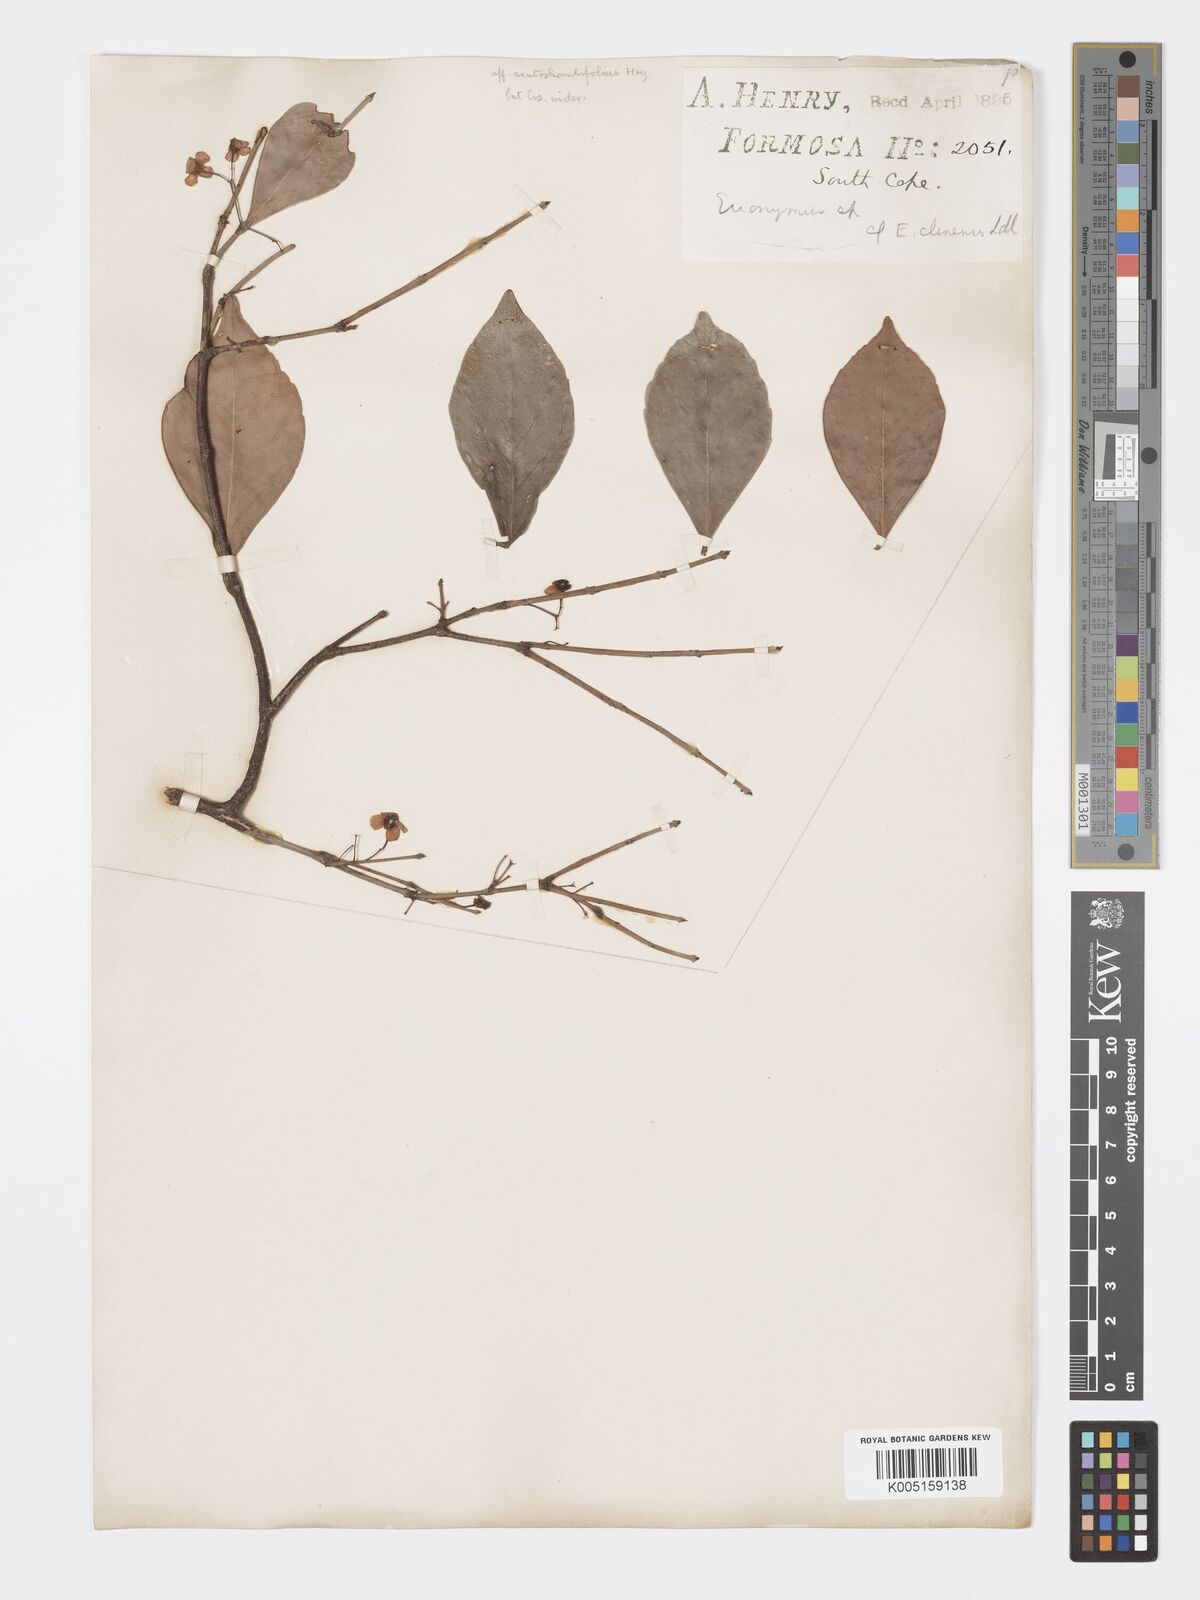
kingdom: Plantae
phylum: Tracheophyta
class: Magnoliopsida
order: Celastrales
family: Celastraceae
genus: Euonymus
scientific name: Euonymus tashiroi
